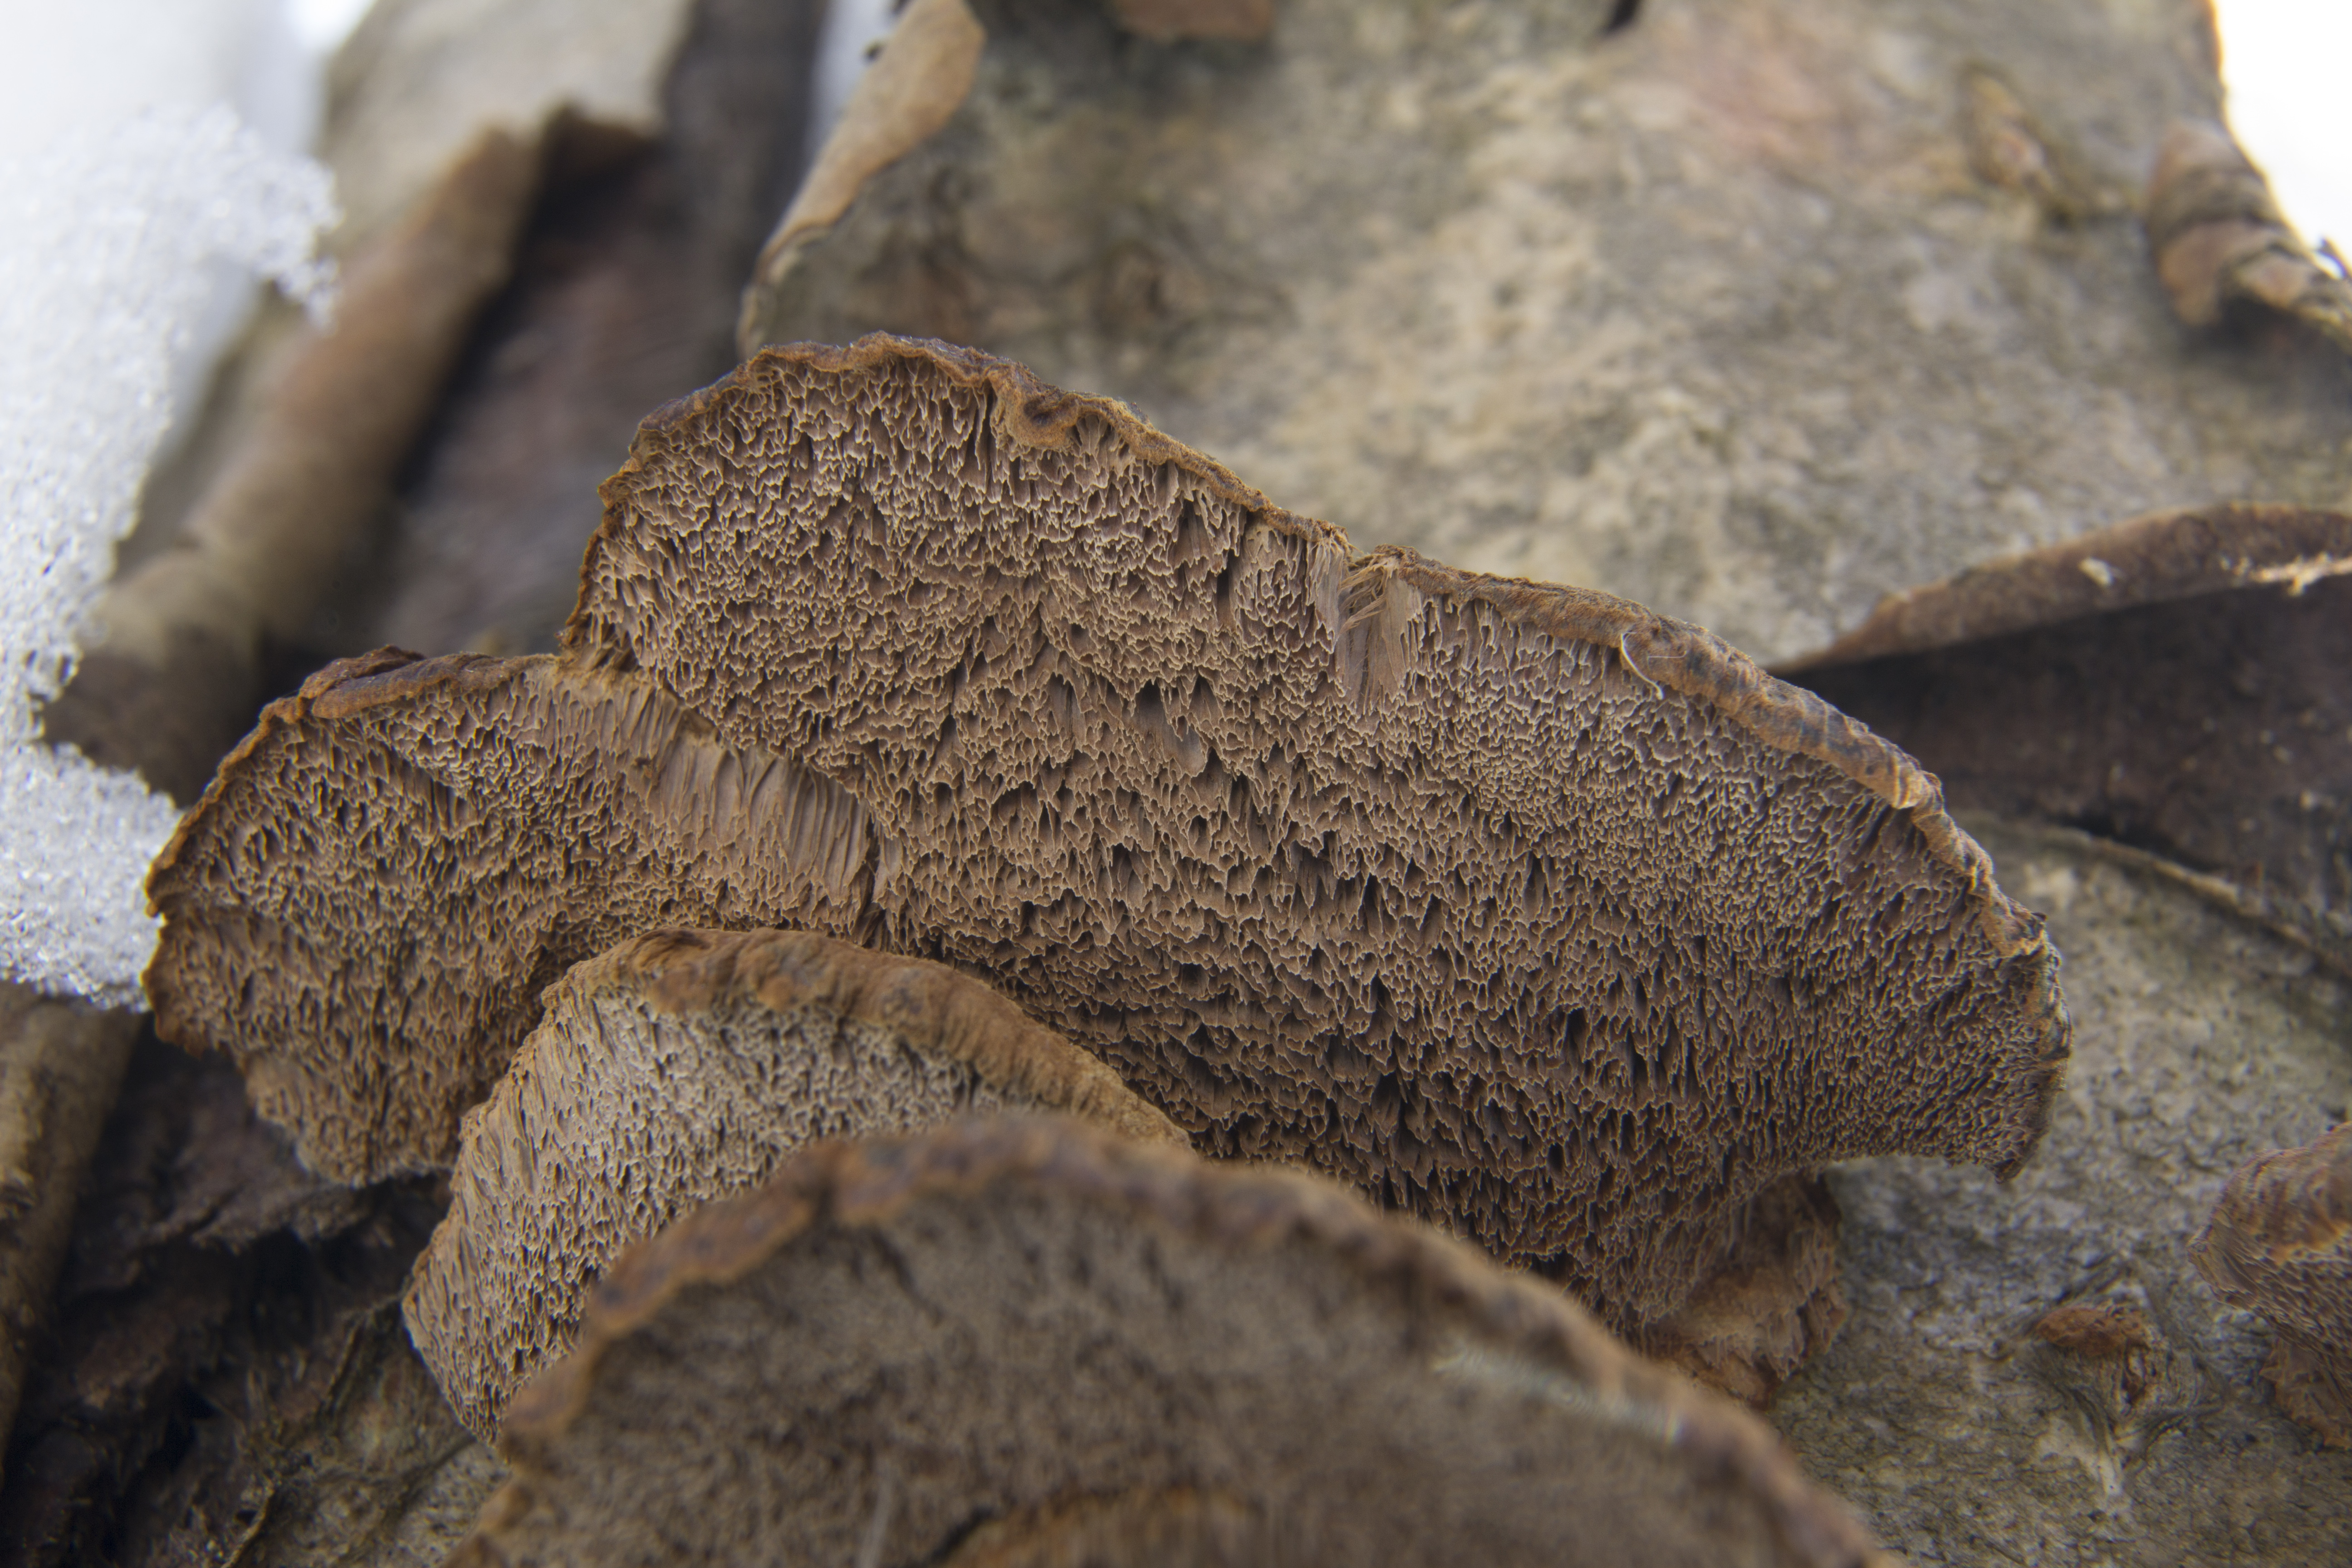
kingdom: Fungi
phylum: Basidiomycota
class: Agaricomycetes
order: Hymenochaetales
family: Hymenochaetaceae
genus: Xanthoporia
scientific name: Xanthoporia radiata
